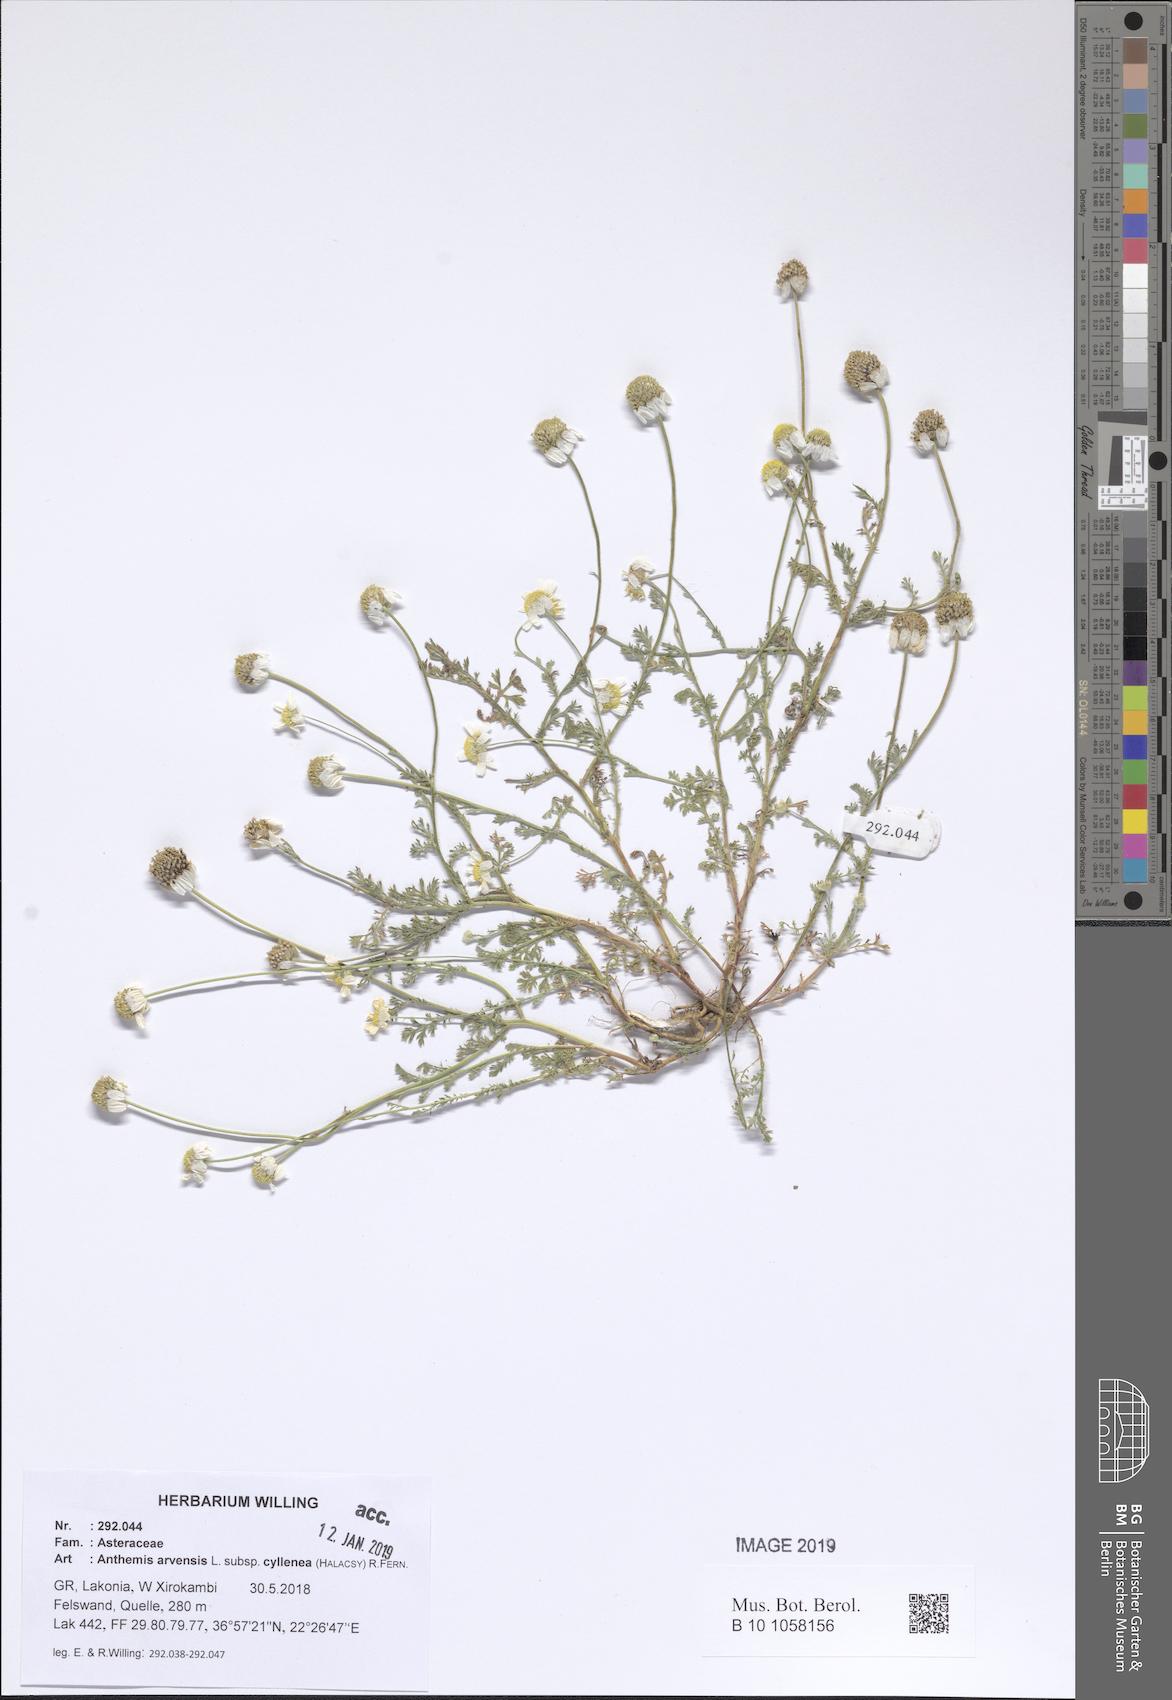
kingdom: Plantae
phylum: Tracheophyta
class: Magnoliopsida
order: Asterales
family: Asteraceae
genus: Anthemis
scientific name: Anthemis arvensis
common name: Corn chamomile
